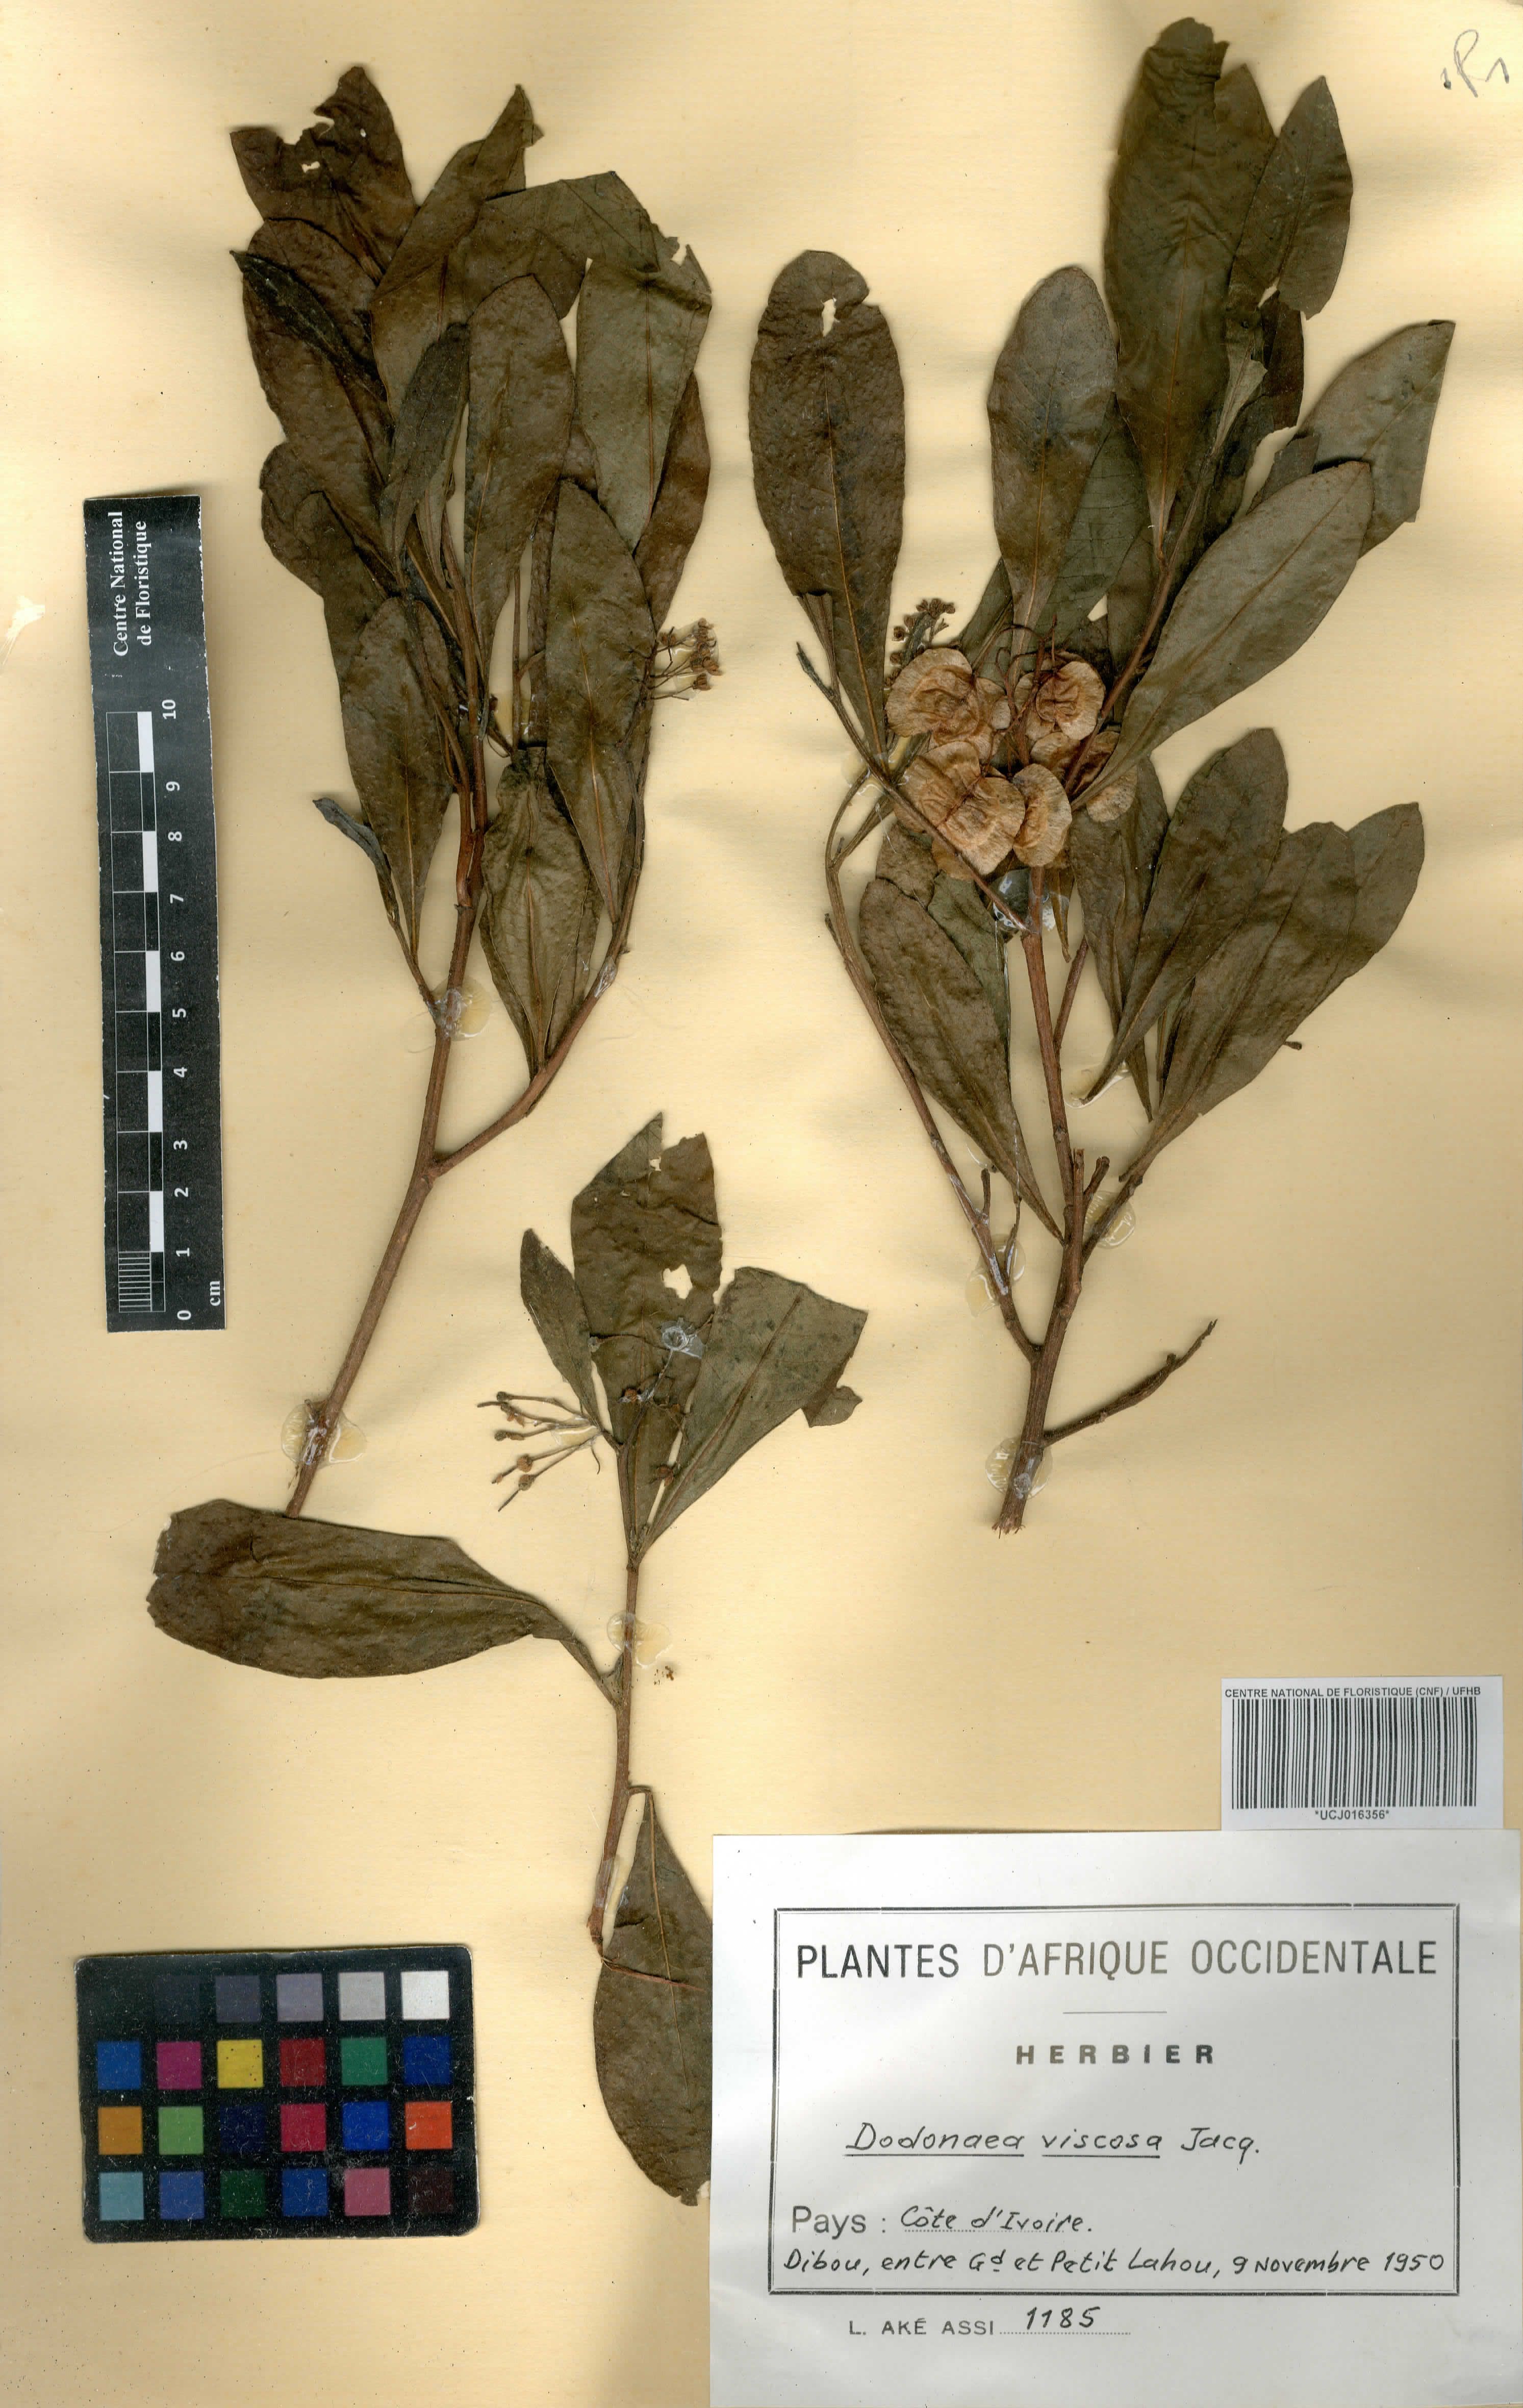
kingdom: Plantae
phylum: Tracheophyta
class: Magnoliopsida
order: Sapindales
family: Sapindaceae
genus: Dodonaea
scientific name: Dodonaea viscosa
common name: Hopbush
